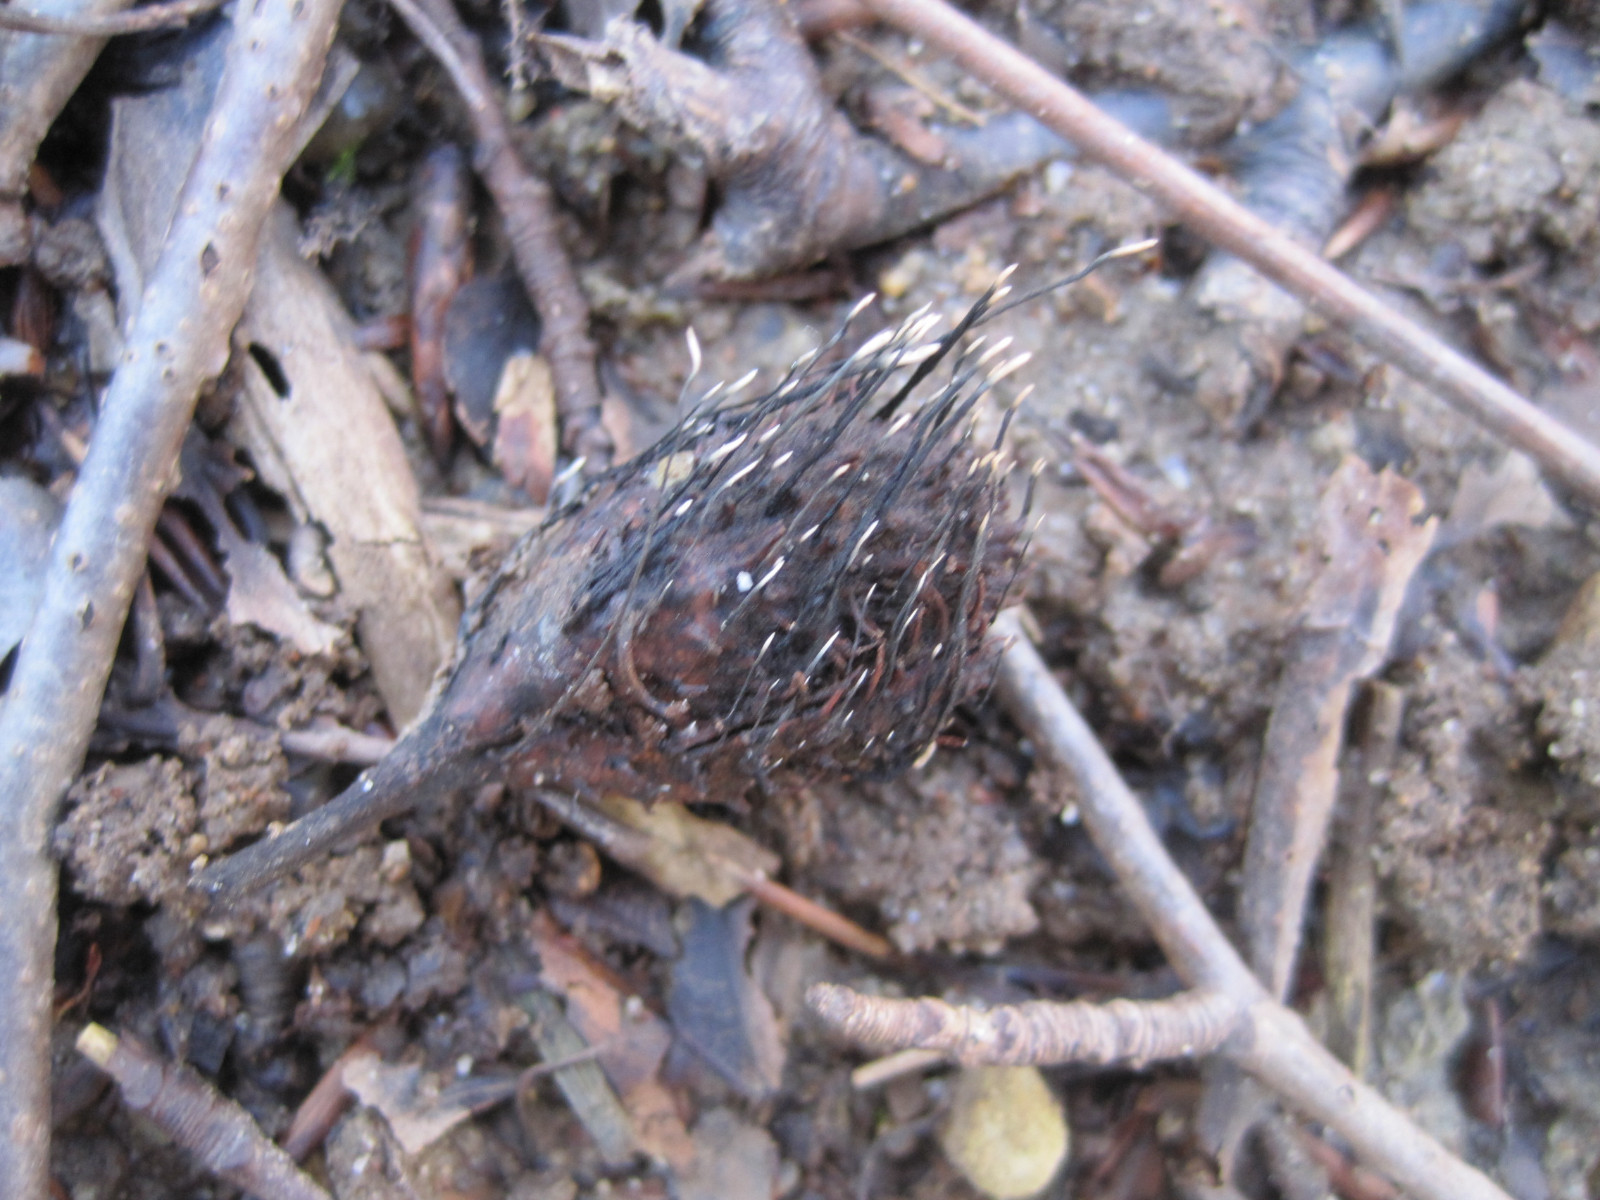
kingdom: Fungi
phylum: Ascomycota
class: Sordariomycetes
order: Xylariales
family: Xylariaceae
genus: Xylaria
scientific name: Xylaria carpophila
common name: bogskål-stødsvamp
